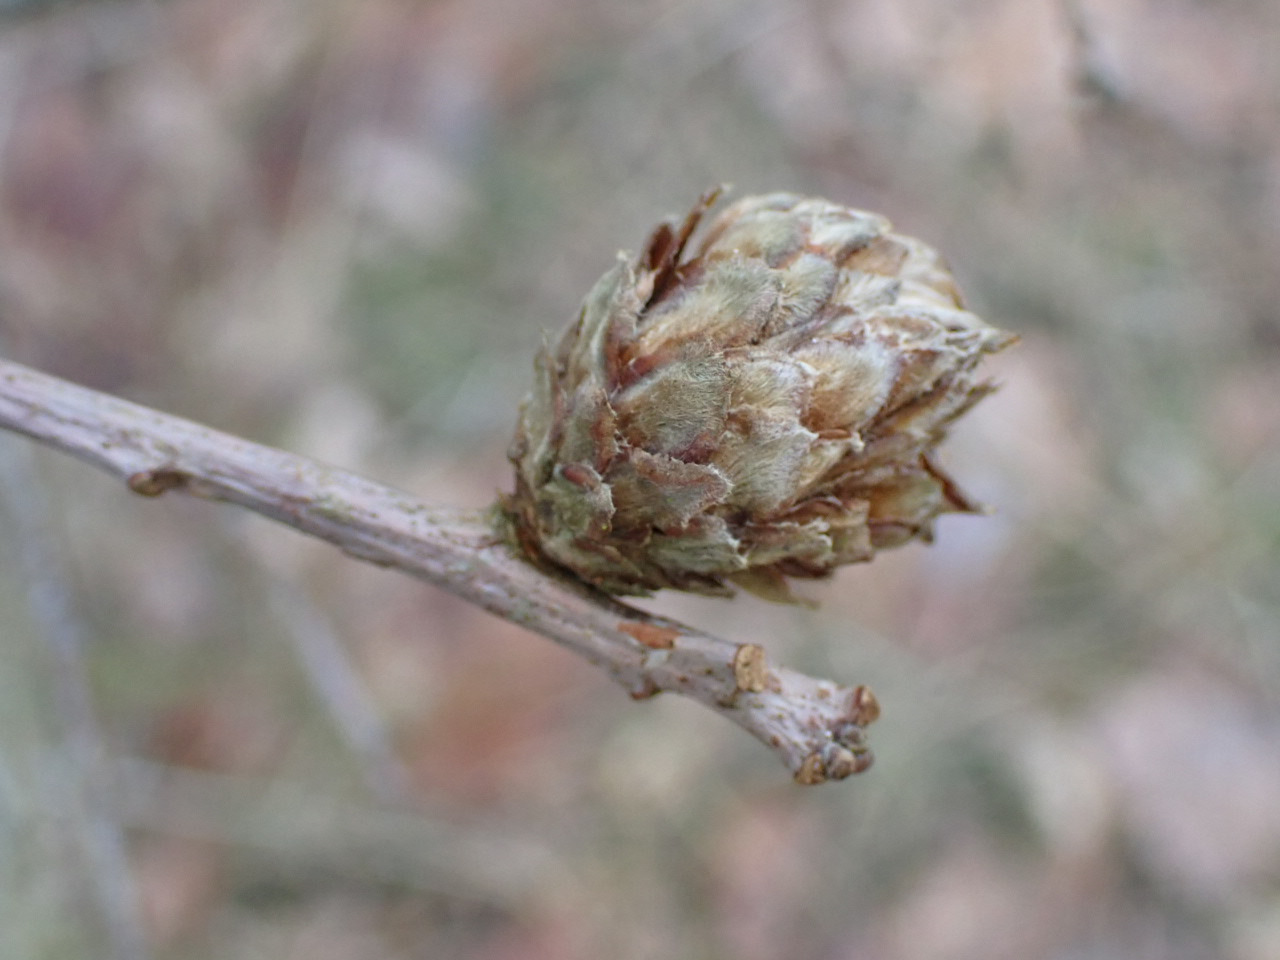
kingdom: Animalia
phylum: Arthropoda
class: Insecta
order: Hymenoptera
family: Cynipidae
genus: Andricus
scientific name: Andricus foecundatrix
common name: Artiskokgalhveps
